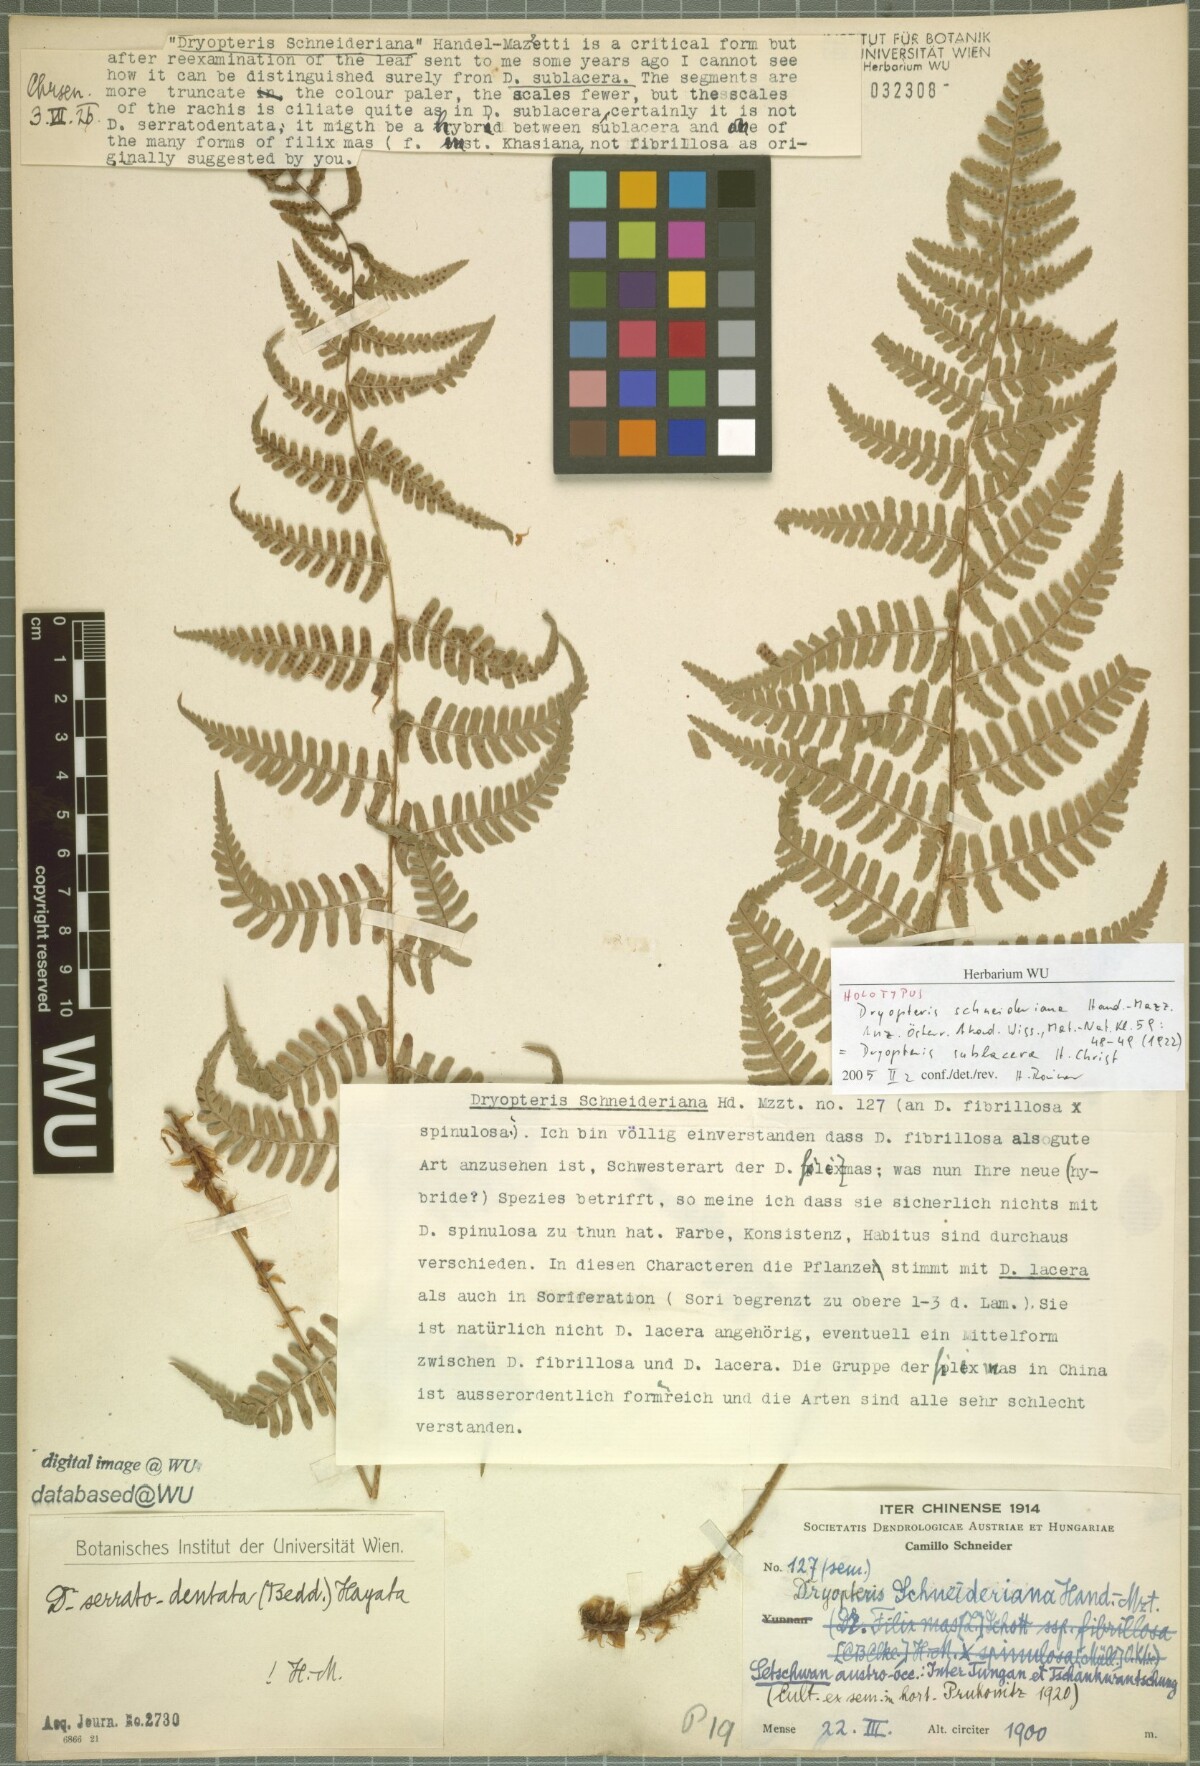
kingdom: Plantae
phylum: Tracheophyta
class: Polypodiopsida
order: Polypodiales
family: Dryopteridaceae
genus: Dryopteris
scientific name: Dryopteris sublacera
